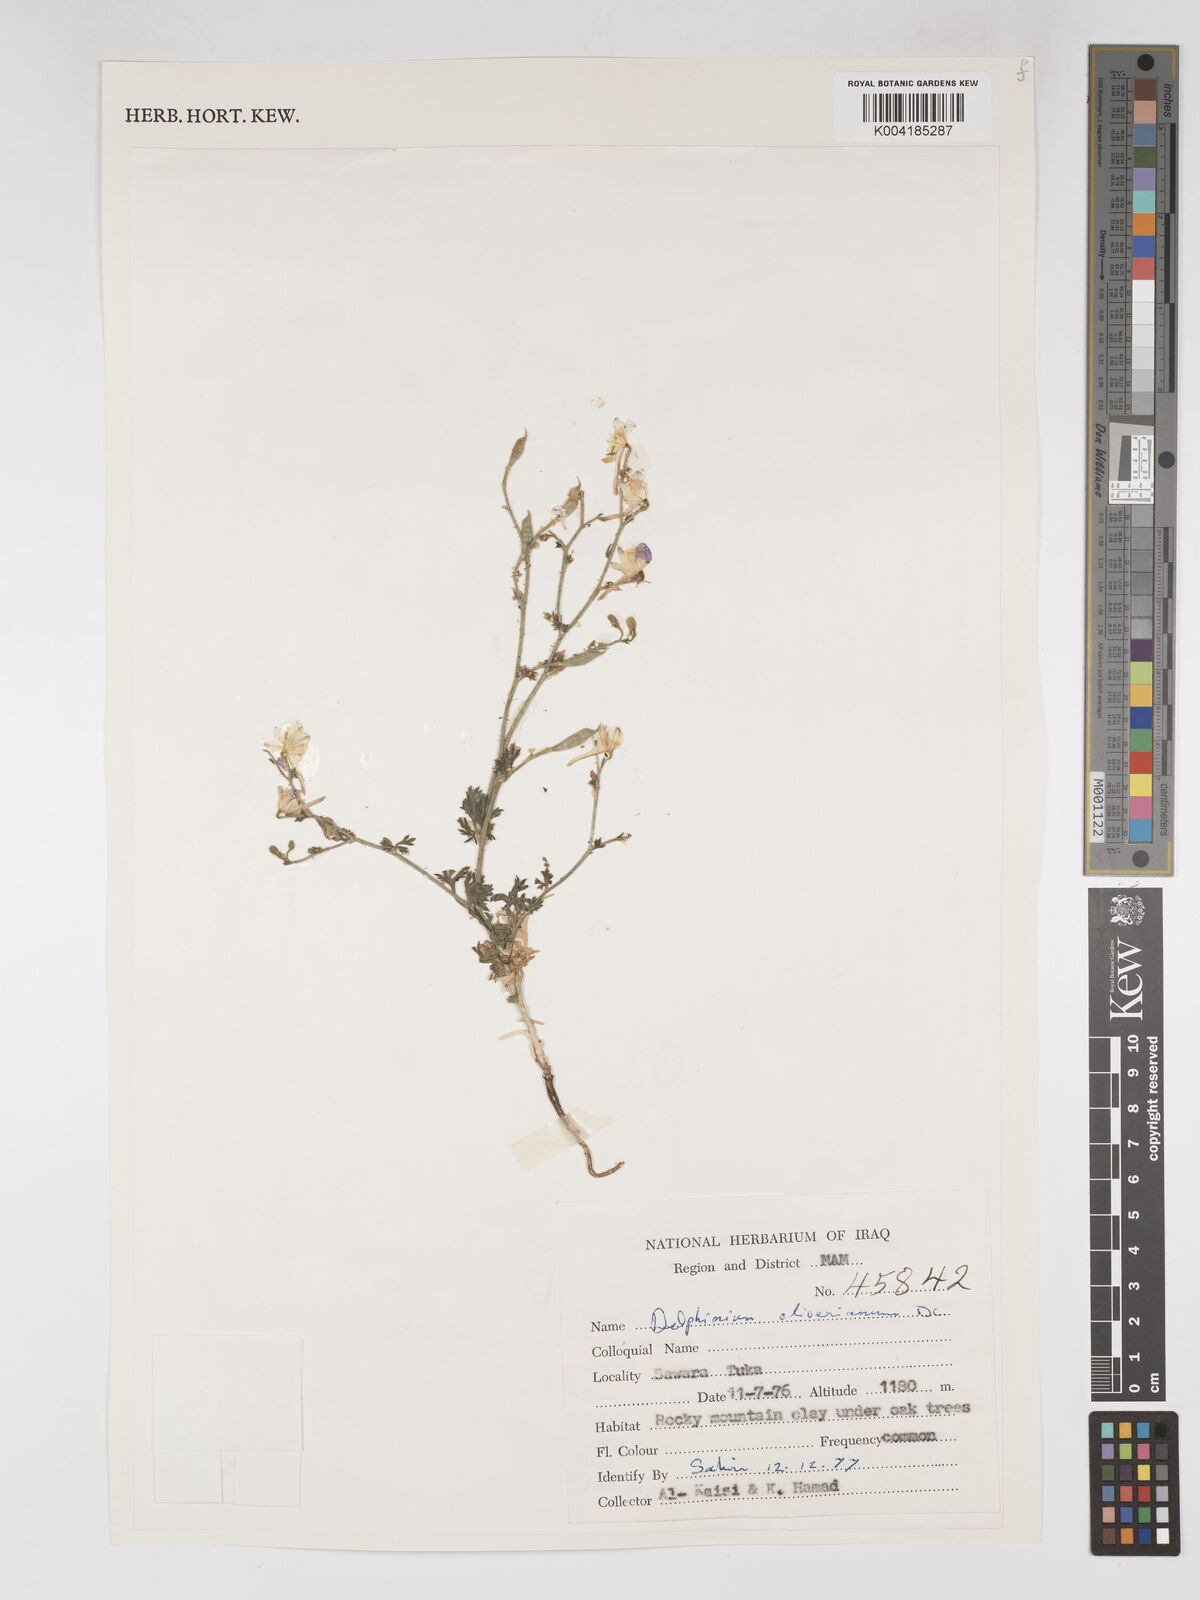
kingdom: Plantae
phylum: Tracheophyta
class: Magnoliopsida
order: Ranunculales
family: Ranunculaceae
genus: Delphinium
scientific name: Delphinium oliverianum
